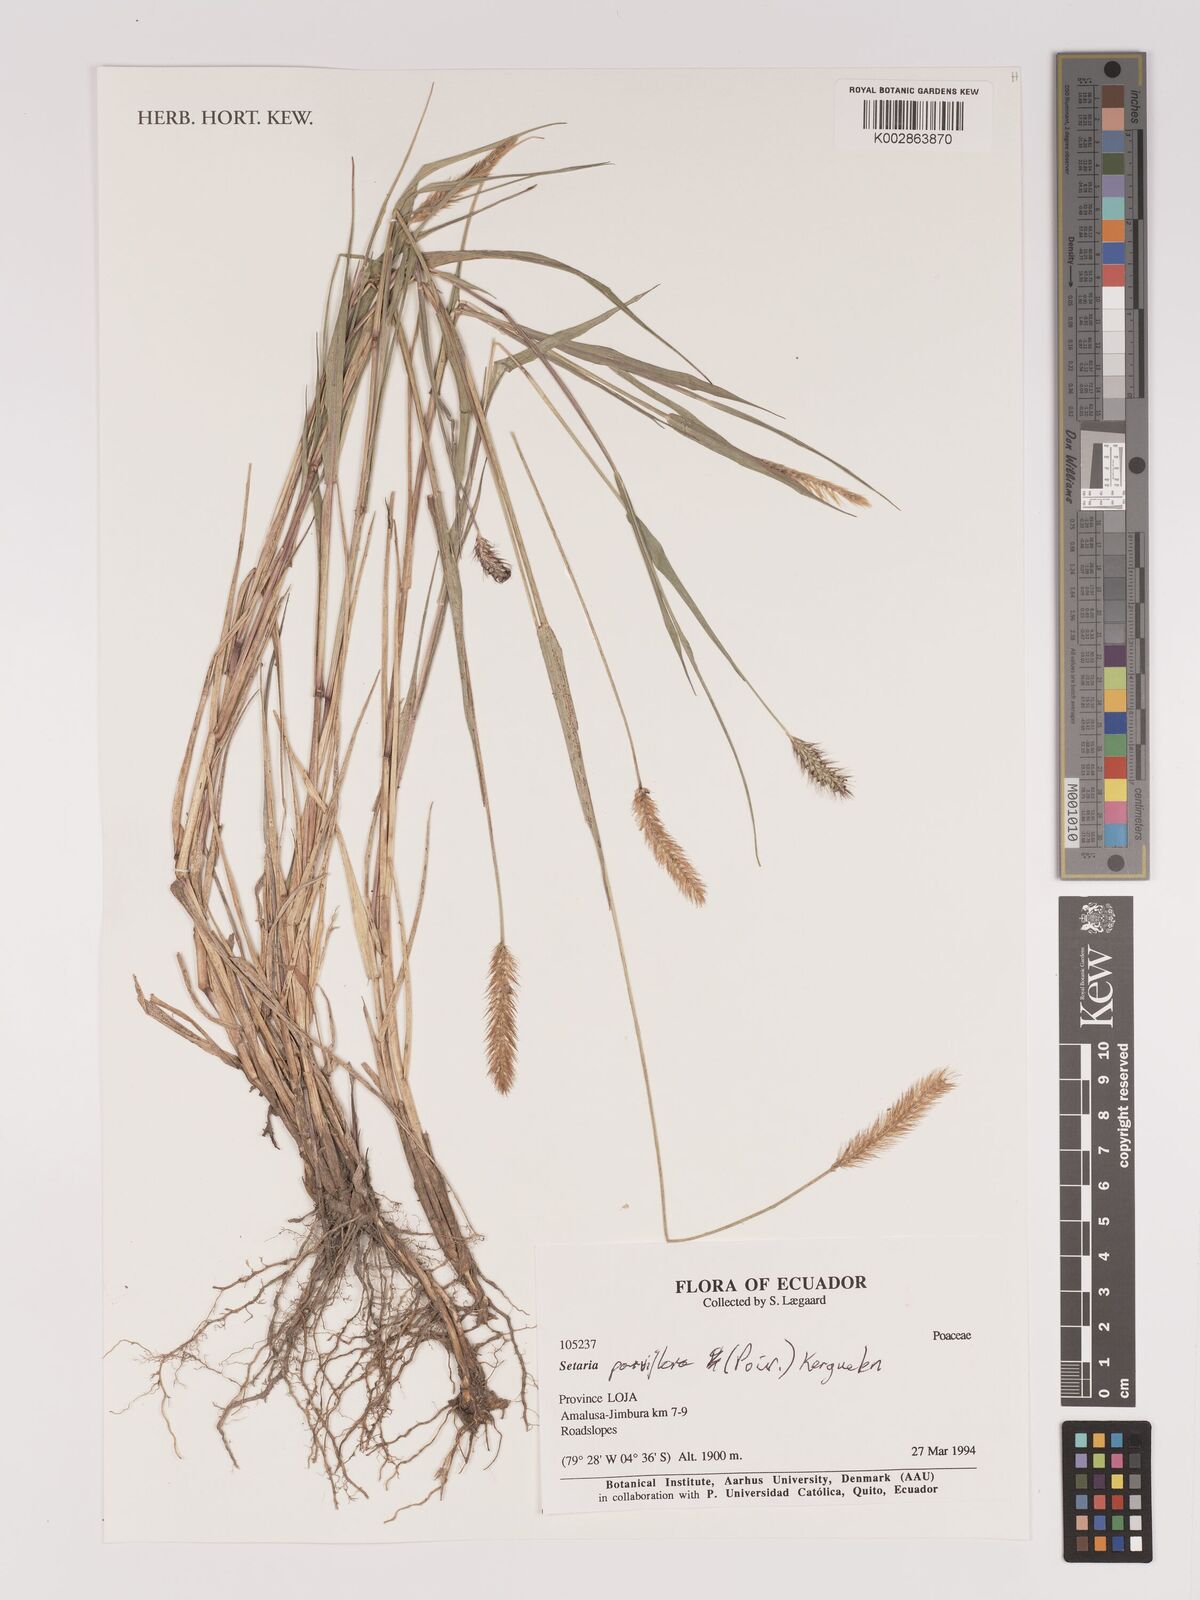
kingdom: Plantae
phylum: Tracheophyta
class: Liliopsida
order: Poales
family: Poaceae
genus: Setaria
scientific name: Setaria parviflora
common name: Knotroot bristle-grass
